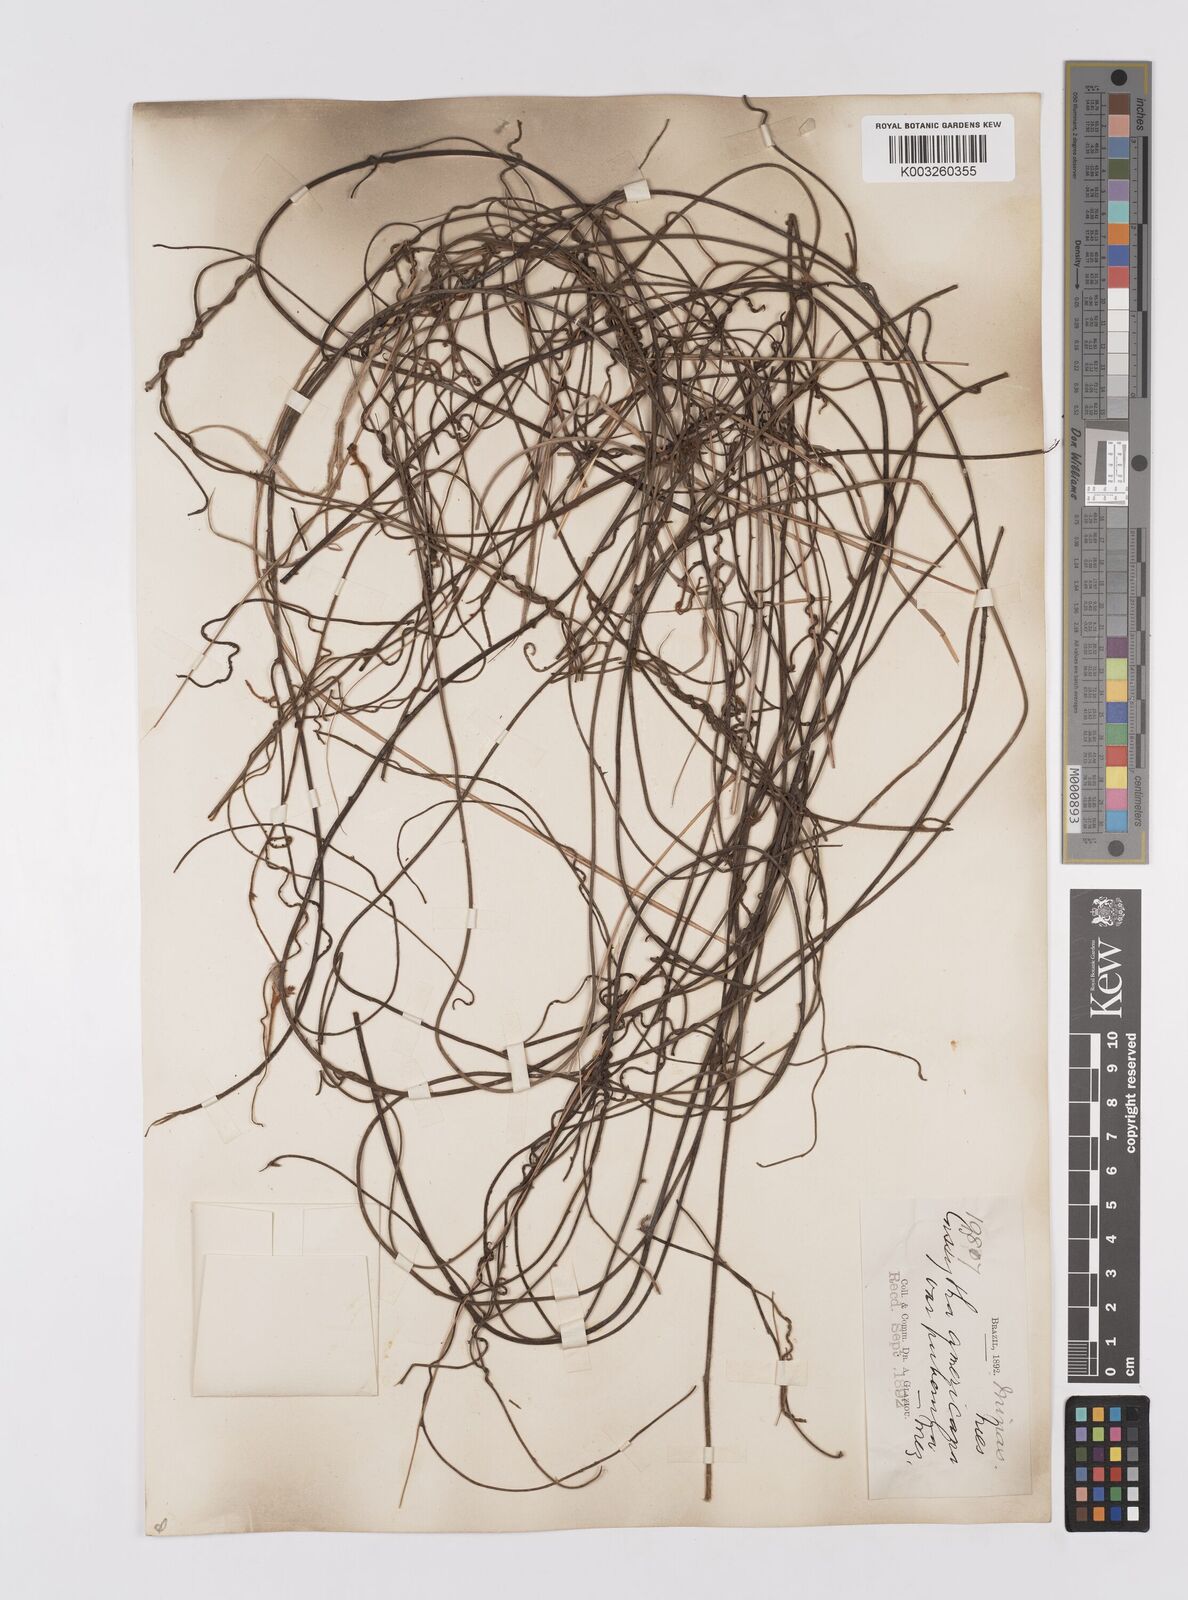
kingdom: Plantae
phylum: Tracheophyta
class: Magnoliopsida
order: Laurales
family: Lauraceae
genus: Cassytha
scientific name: Cassytha filiformis
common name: Dodder-laurel
